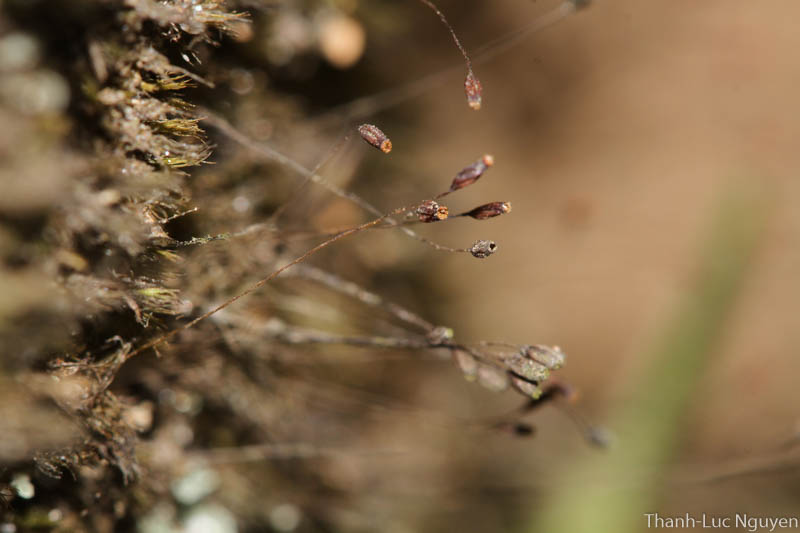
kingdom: Plantae
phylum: Bryophyta
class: Bryopsida
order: Dicranales
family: Ditrichaceae
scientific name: Ditrichaceae
